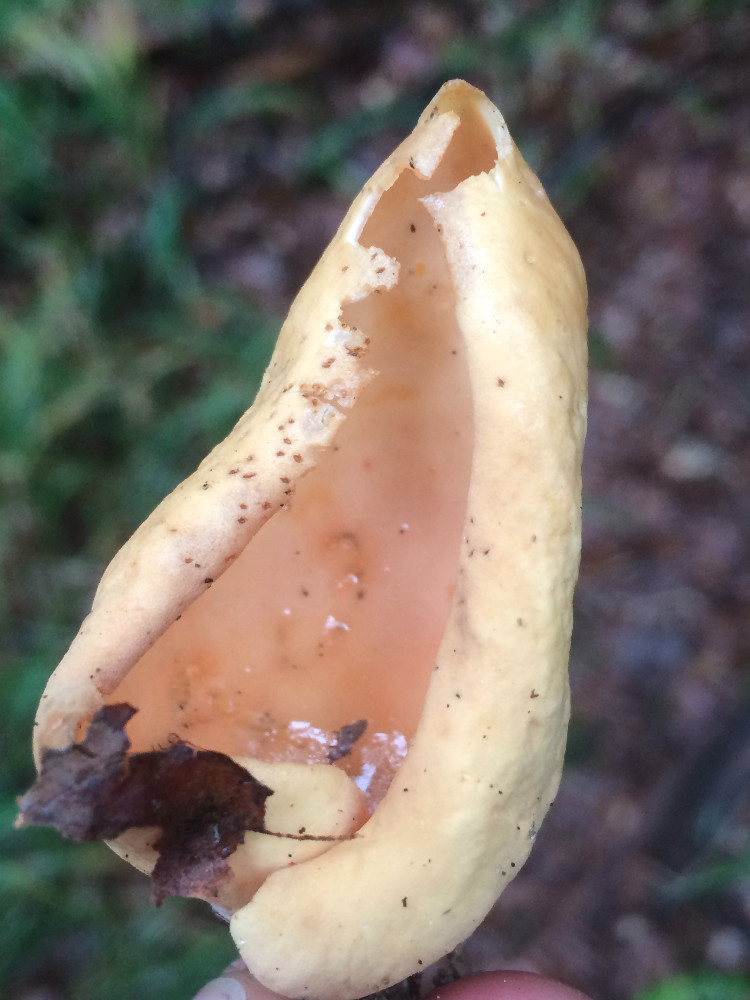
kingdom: Fungi
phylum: Ascomycota
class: Pezizomycetes
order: Pezizales
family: Otideaceae
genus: Otidea
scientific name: Otidea onotica
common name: æsel-ørebæger
